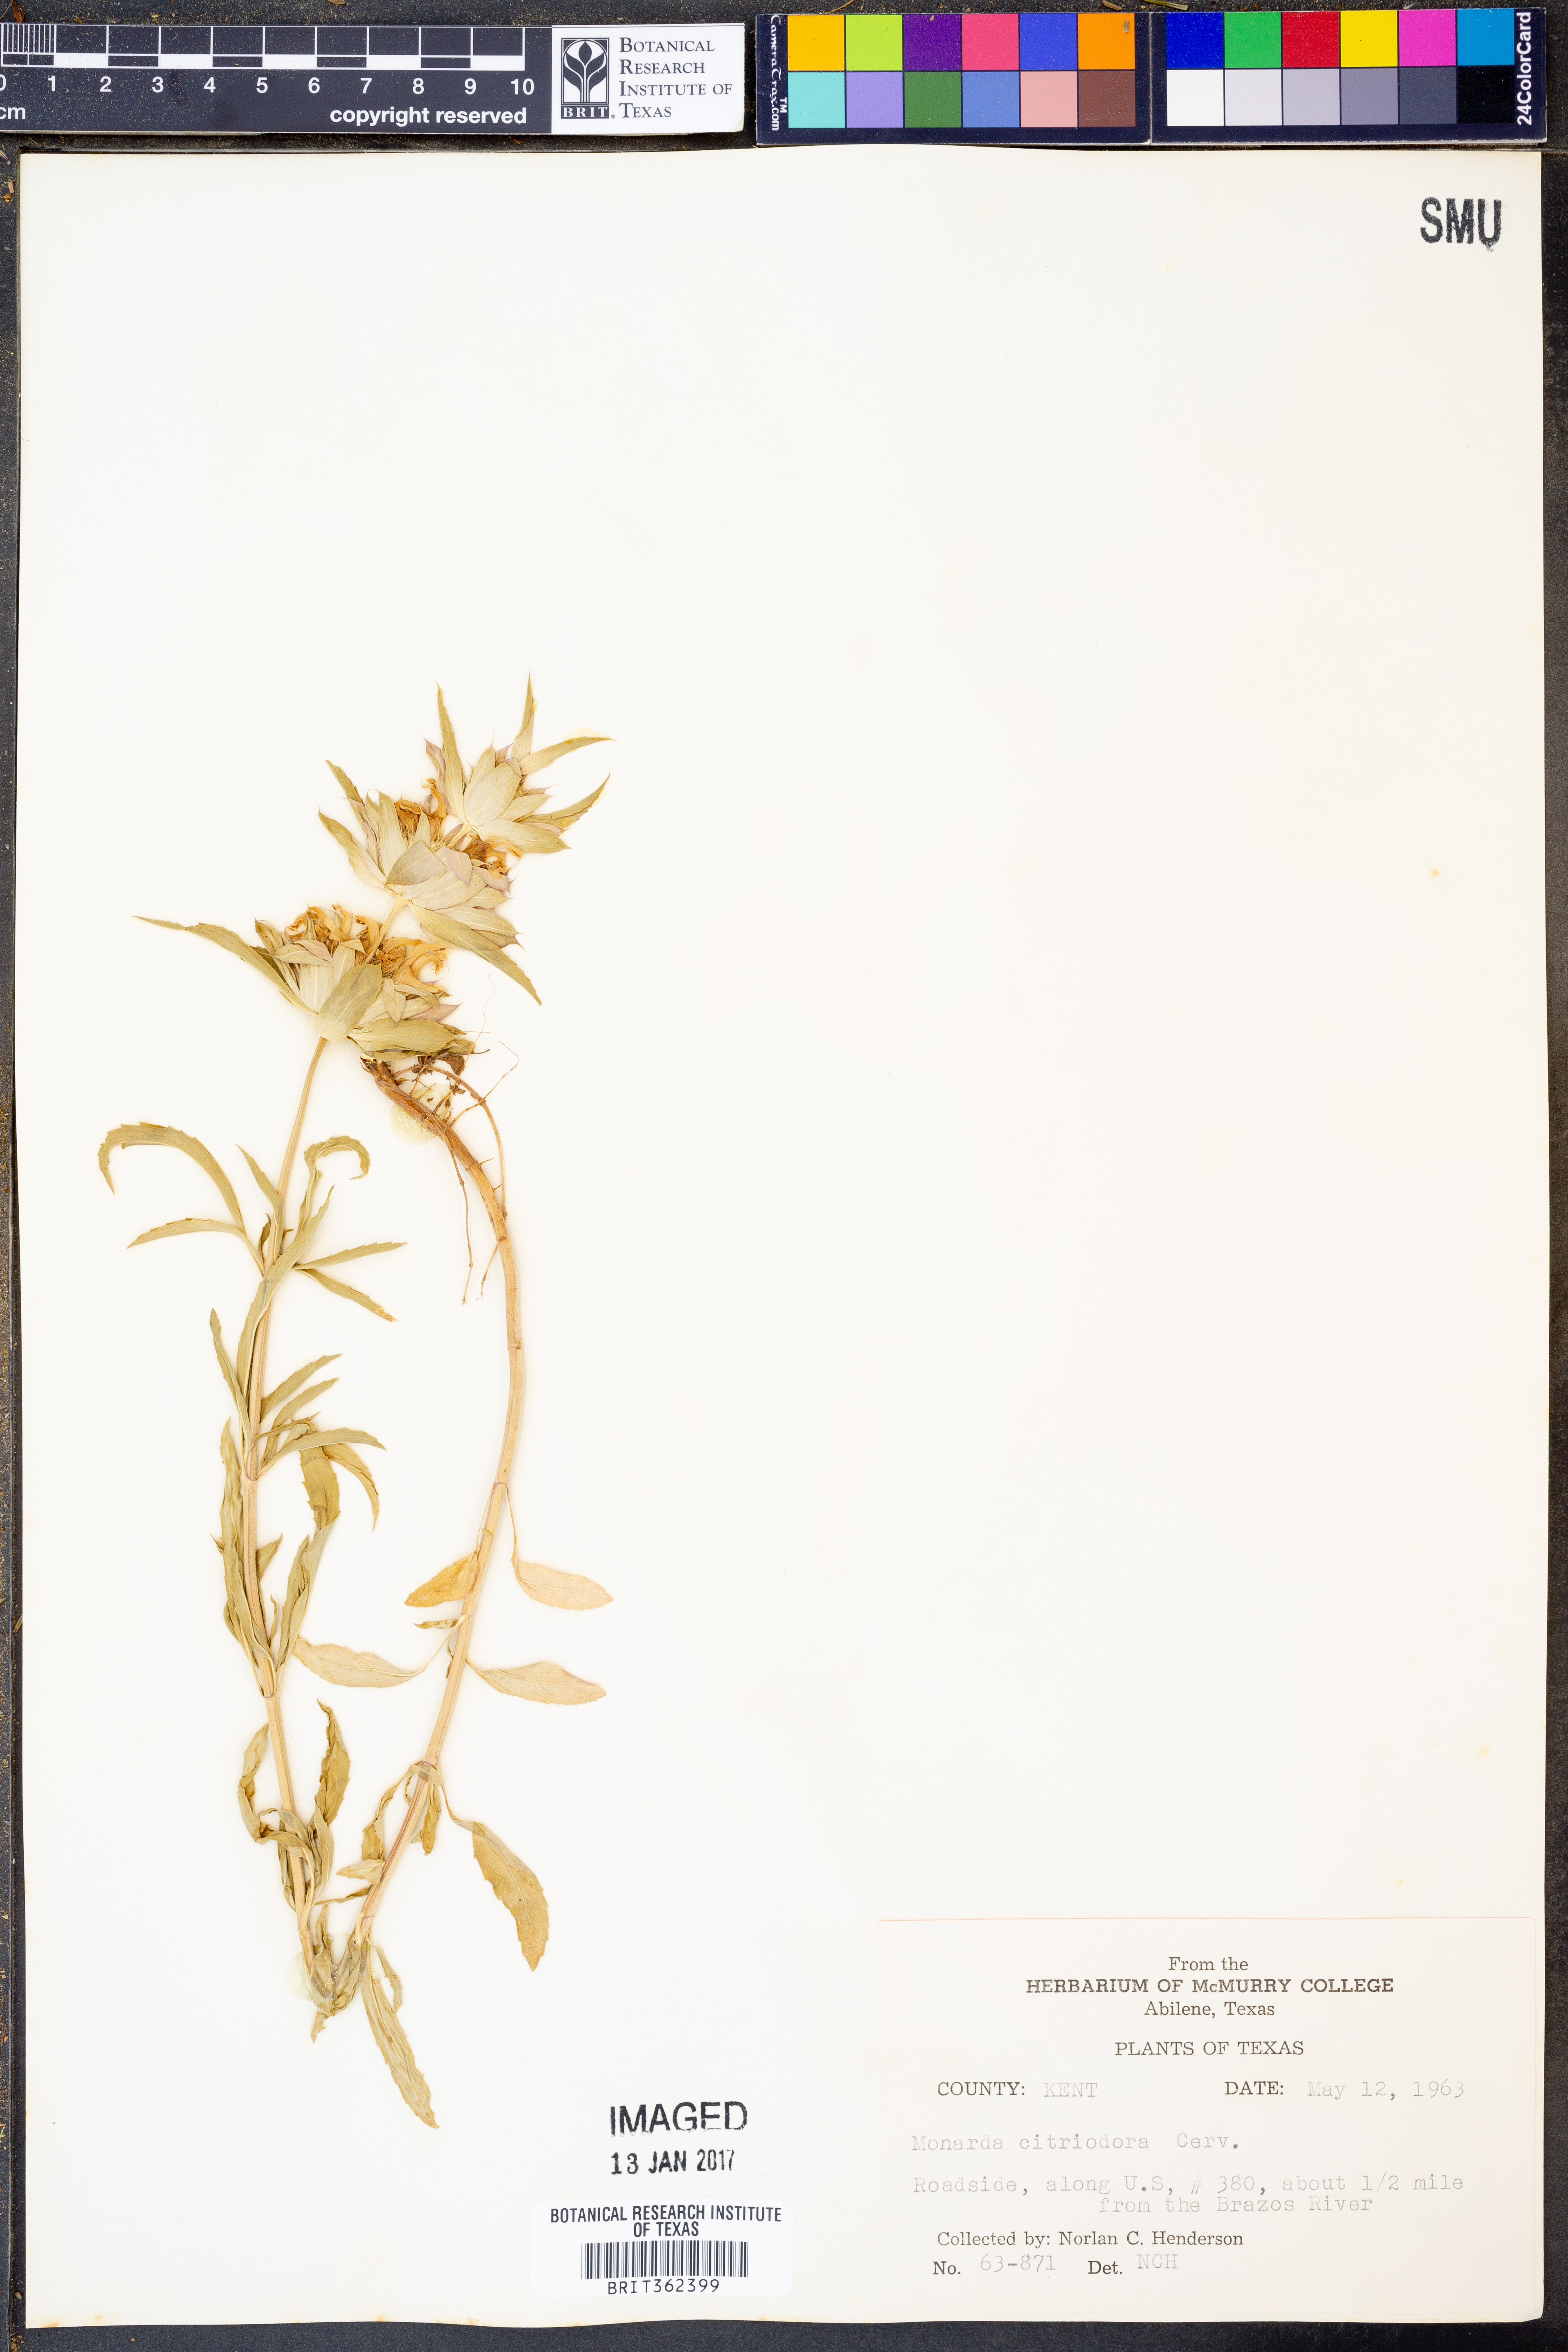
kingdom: Plantae
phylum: Tracheophyta
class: Magnoliopsida
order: Lamiales
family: Lamiaceae
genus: Monarda
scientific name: Monarda citriodora
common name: Lemon beebalm
